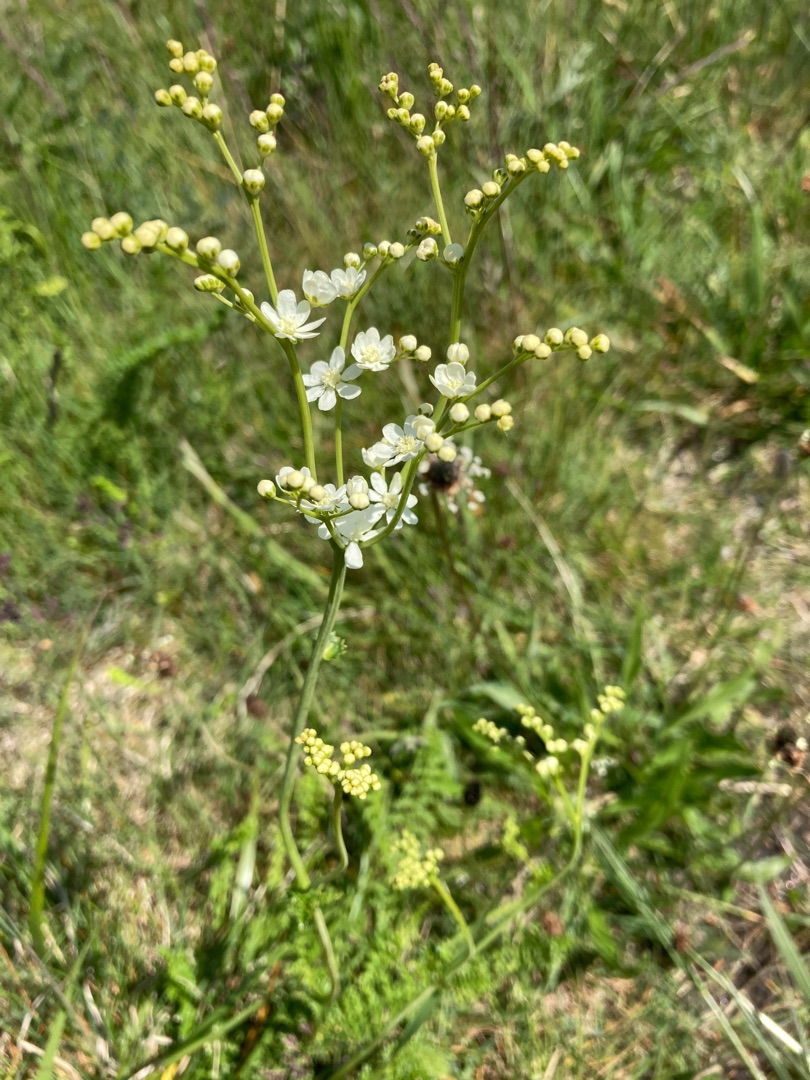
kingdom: Plantae
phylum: Tracheophyta
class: Magnoliopsida
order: Rosales
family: Rosaceae
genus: Filipendula
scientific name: Filipendula vulgaris
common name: Knoldet mjødurt
